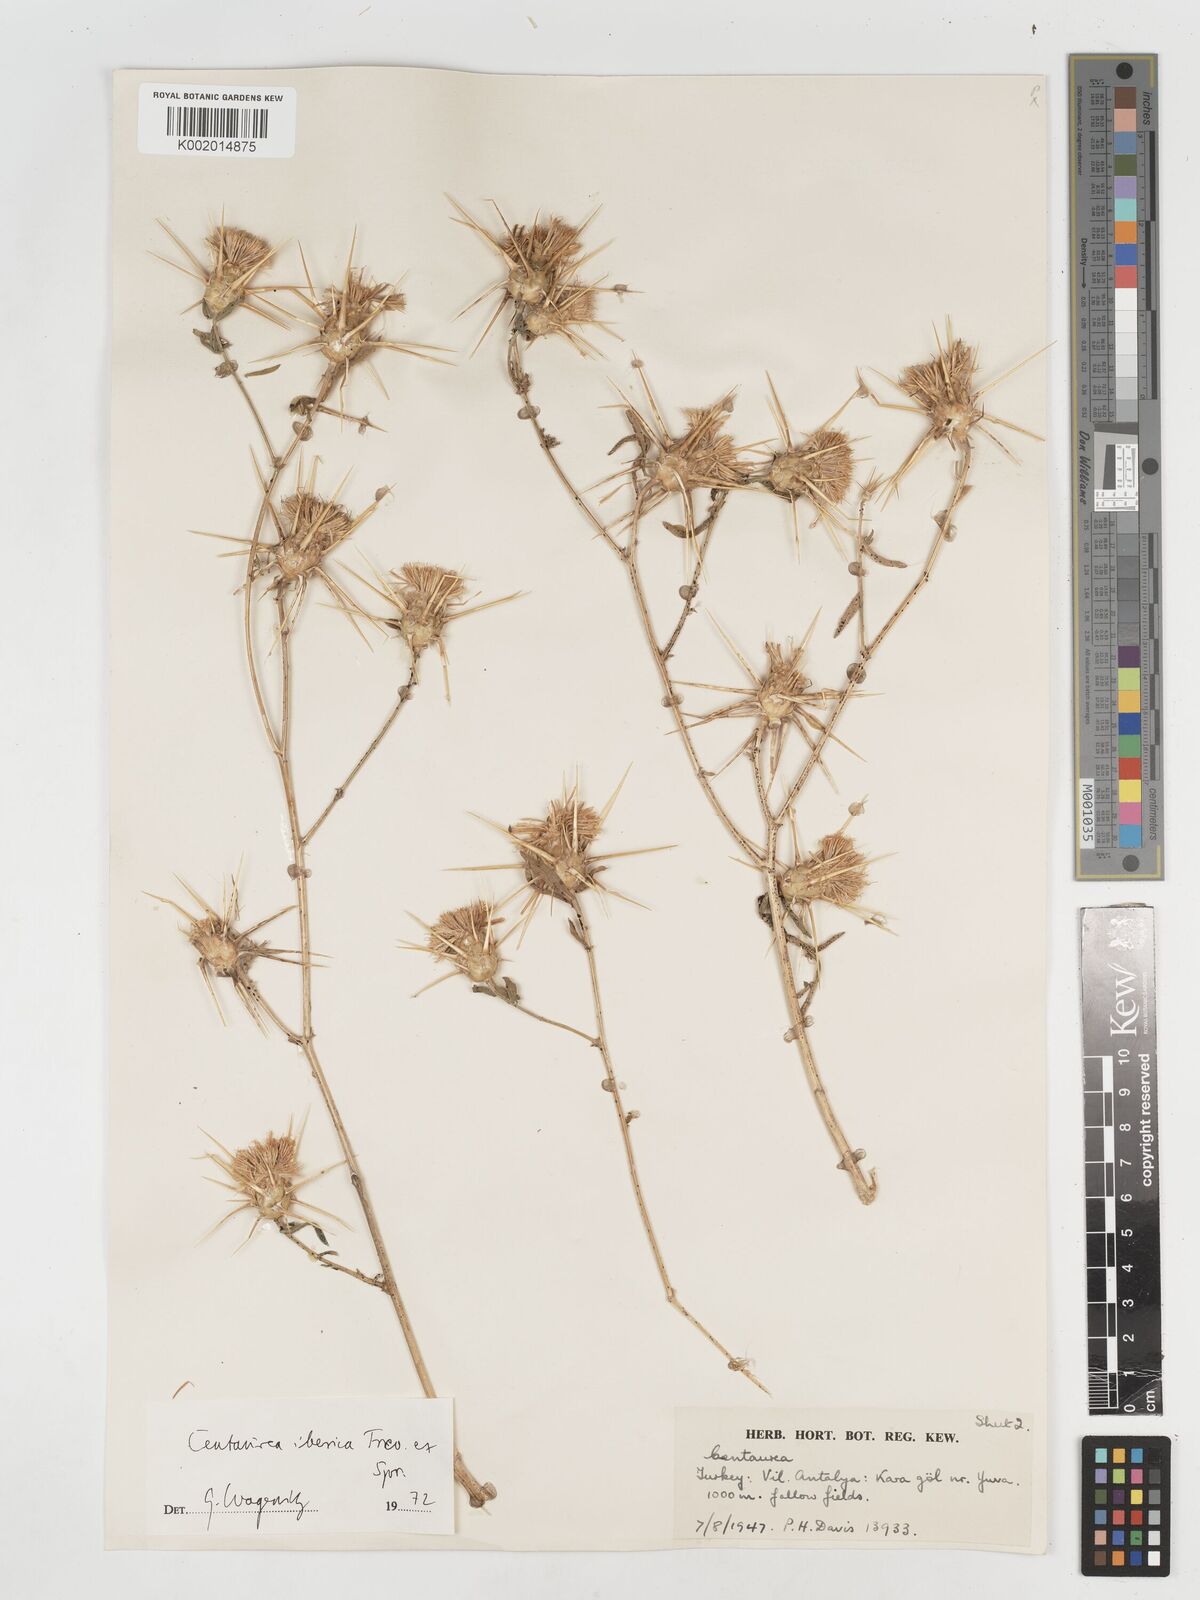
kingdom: Plantae
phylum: Tracheophyta
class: Magnoliopsida
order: Asterales
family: Asteraceae
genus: Centaurea
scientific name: Centaurea iberica
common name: Iberian knapweed
